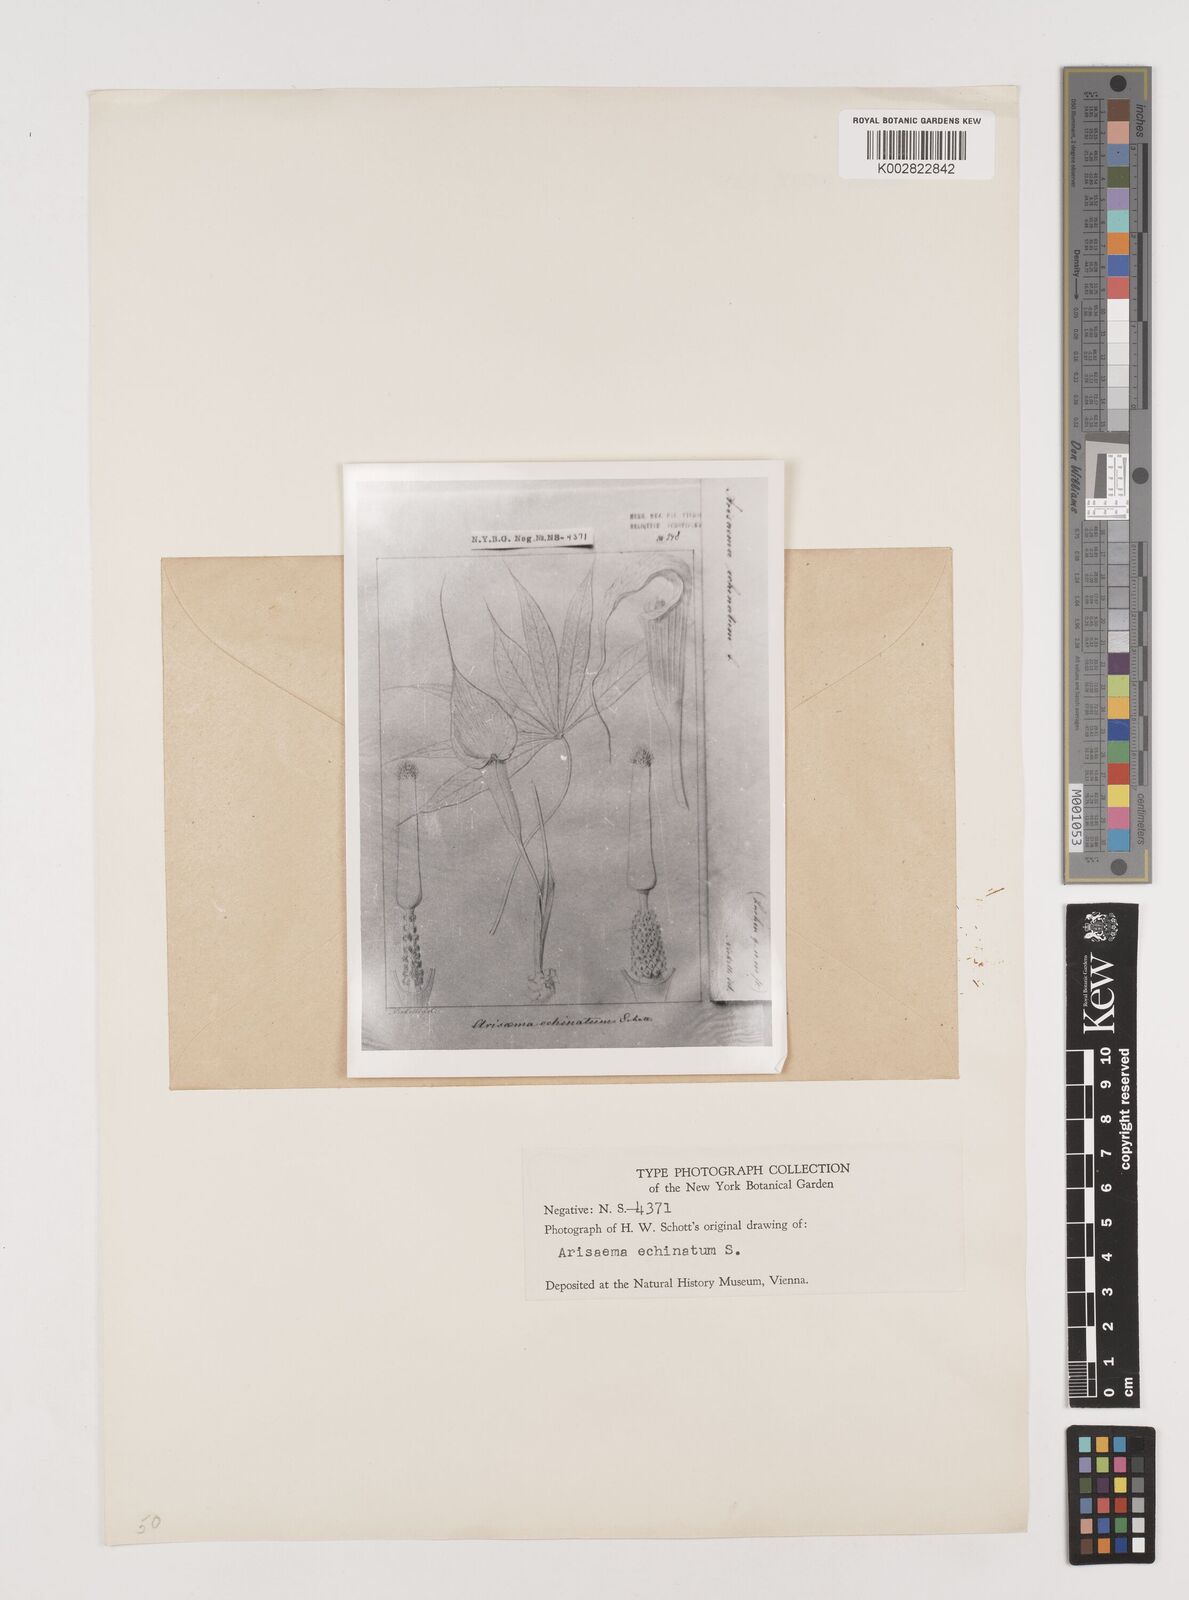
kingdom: Plantae
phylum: Tracheophyta
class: Liliopsida
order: Alismatales
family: Araceae
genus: Arisaema
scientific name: Arisaema echinatum
